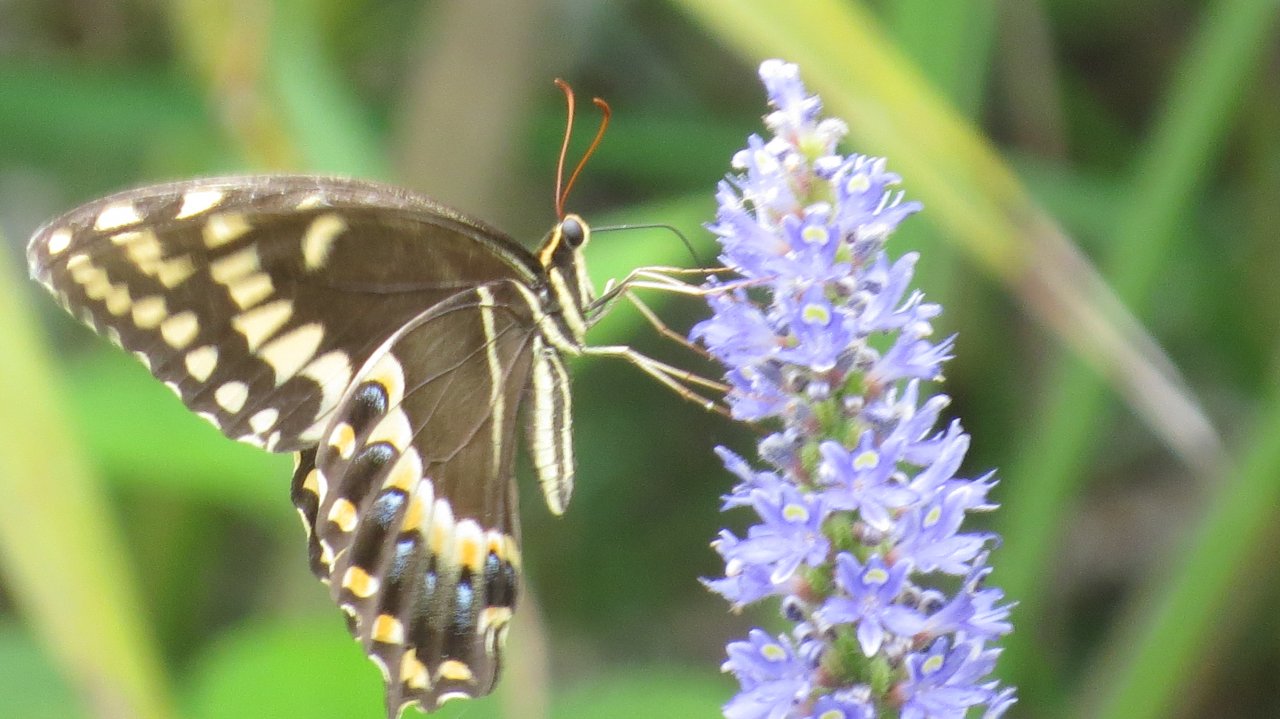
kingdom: Animalia
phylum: Arthropoda
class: Insecta
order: Lepidoptera
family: Papilionidae
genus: Pterourus
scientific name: Pterourus palamedes
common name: Palamedes Swallowtail
